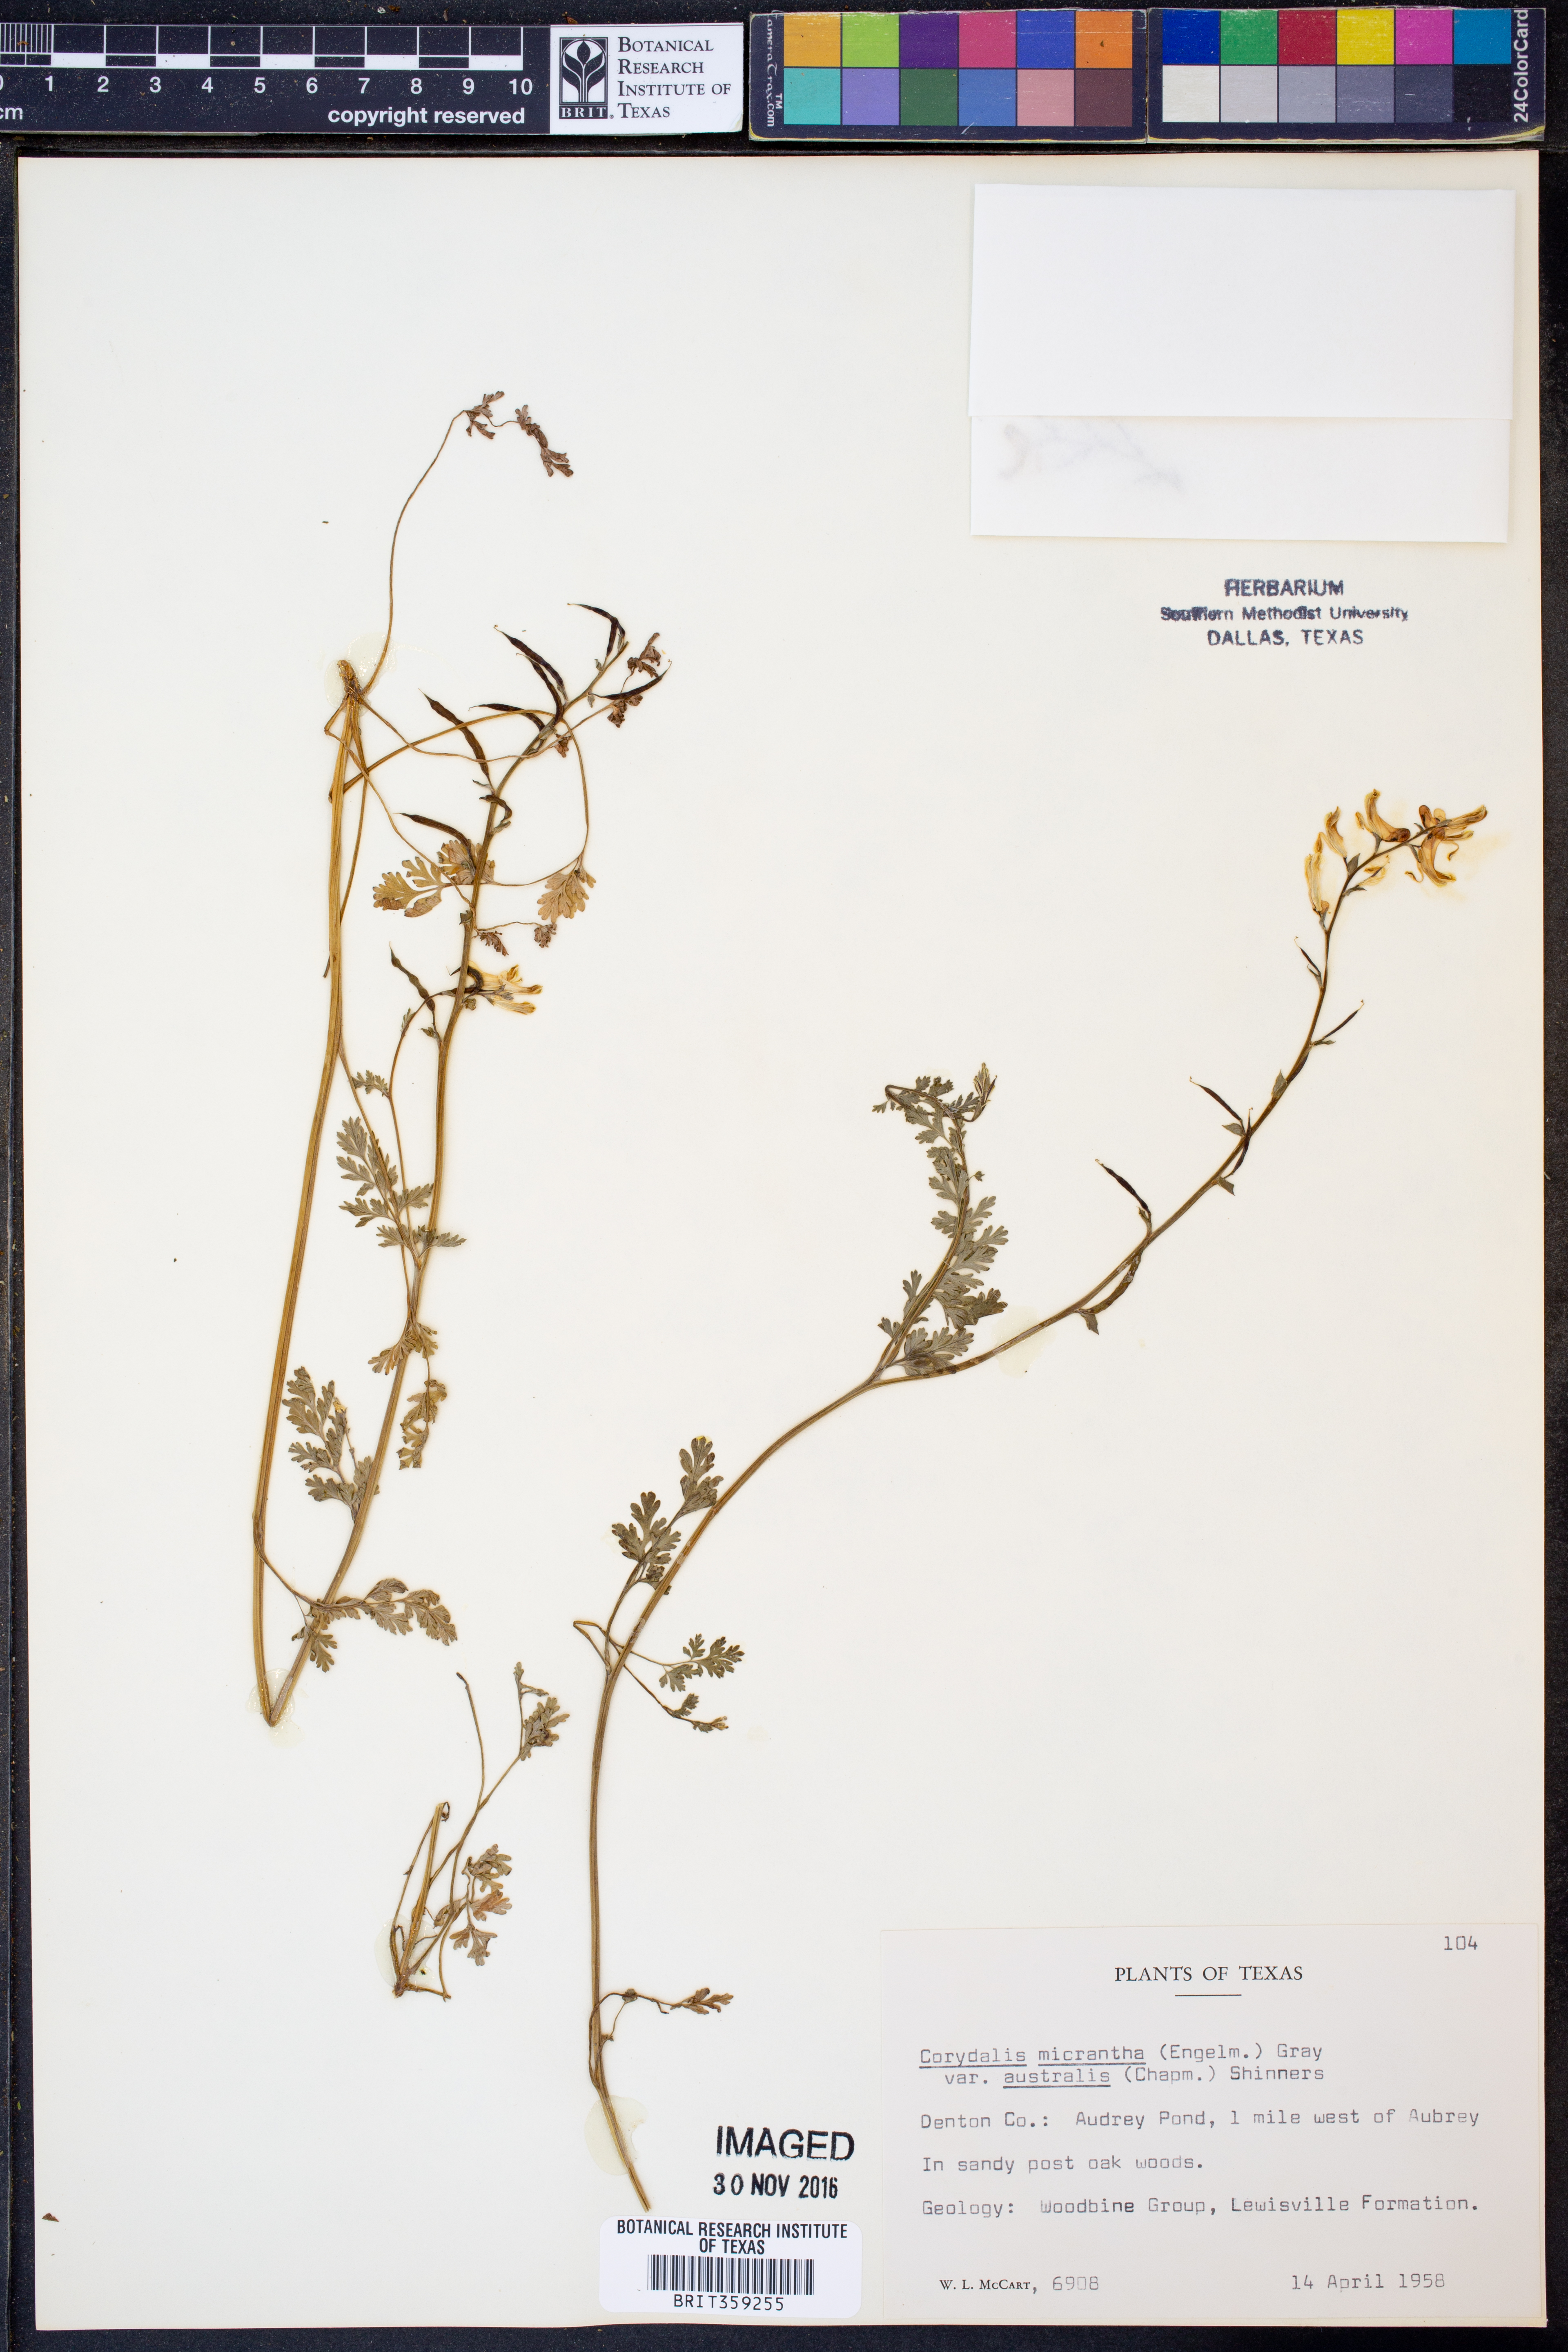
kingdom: Plantae
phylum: Tracheophyta
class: Magnoliopsida
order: Ranunculales
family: Papaveraceae
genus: Corydalis
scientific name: Corydalis micrantha
